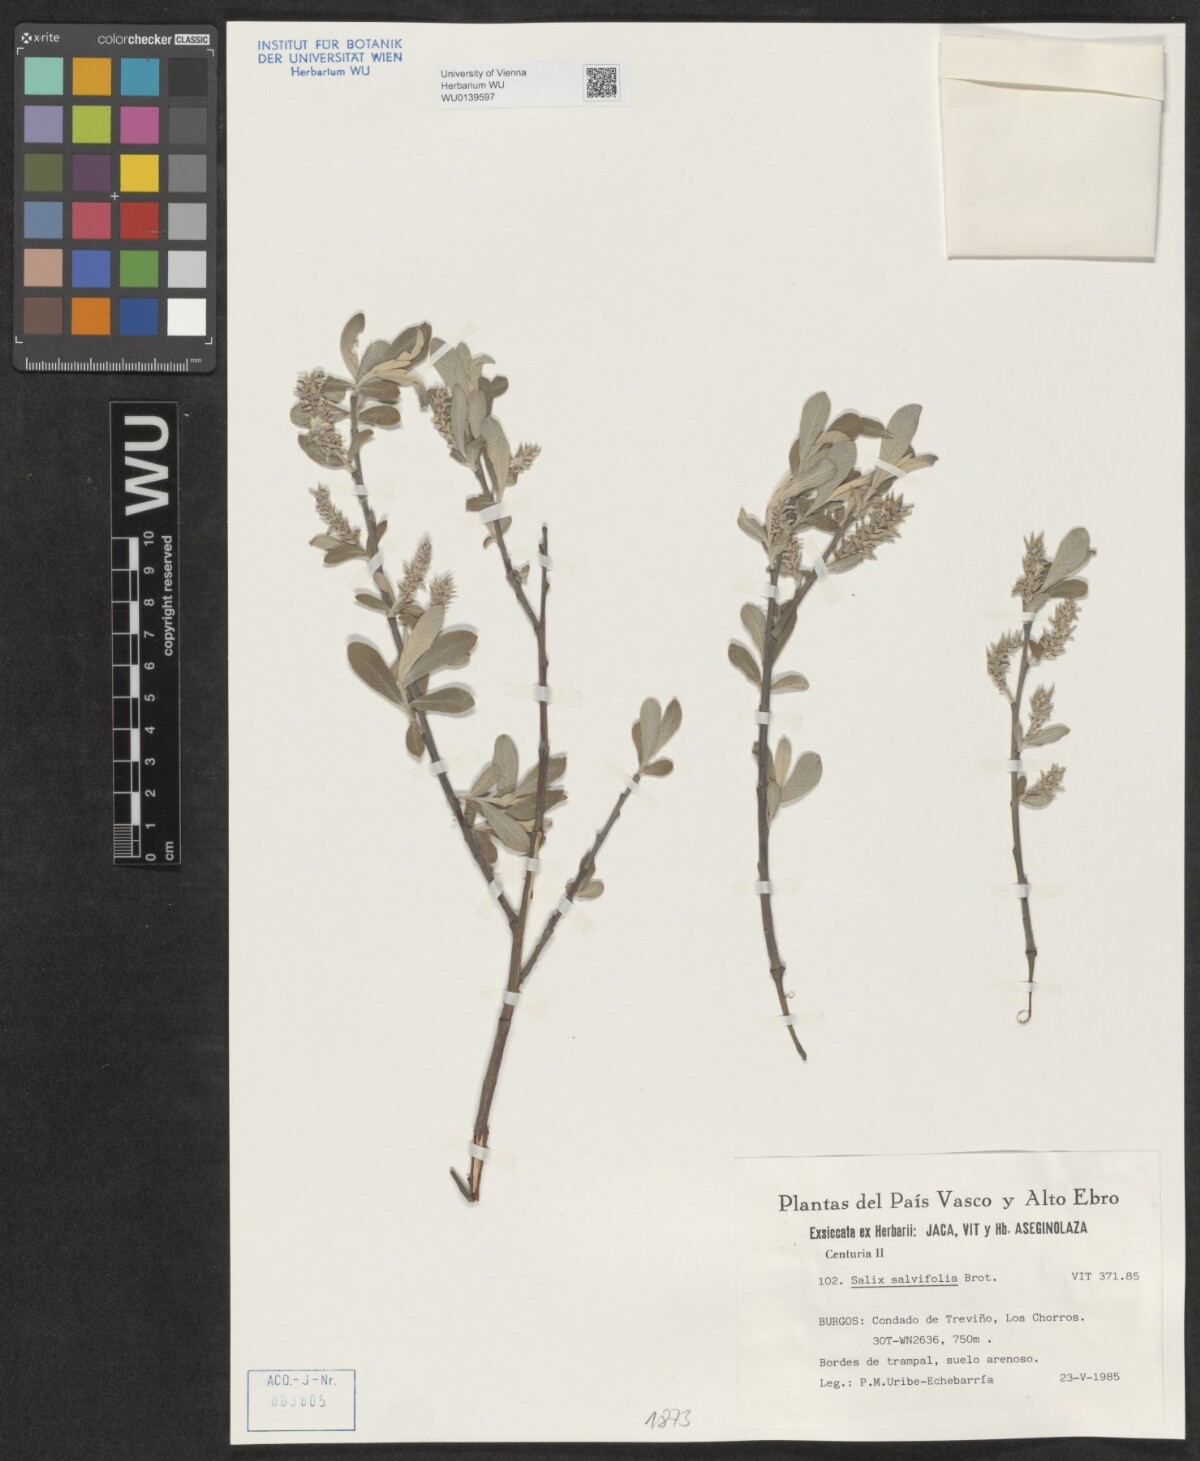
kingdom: Plantae
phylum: Tracheophyta
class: Magnoliopsida
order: Malpighiales
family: Salicaceae
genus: Salix
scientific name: Salix salviifolia
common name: Salvia-leaf willow
